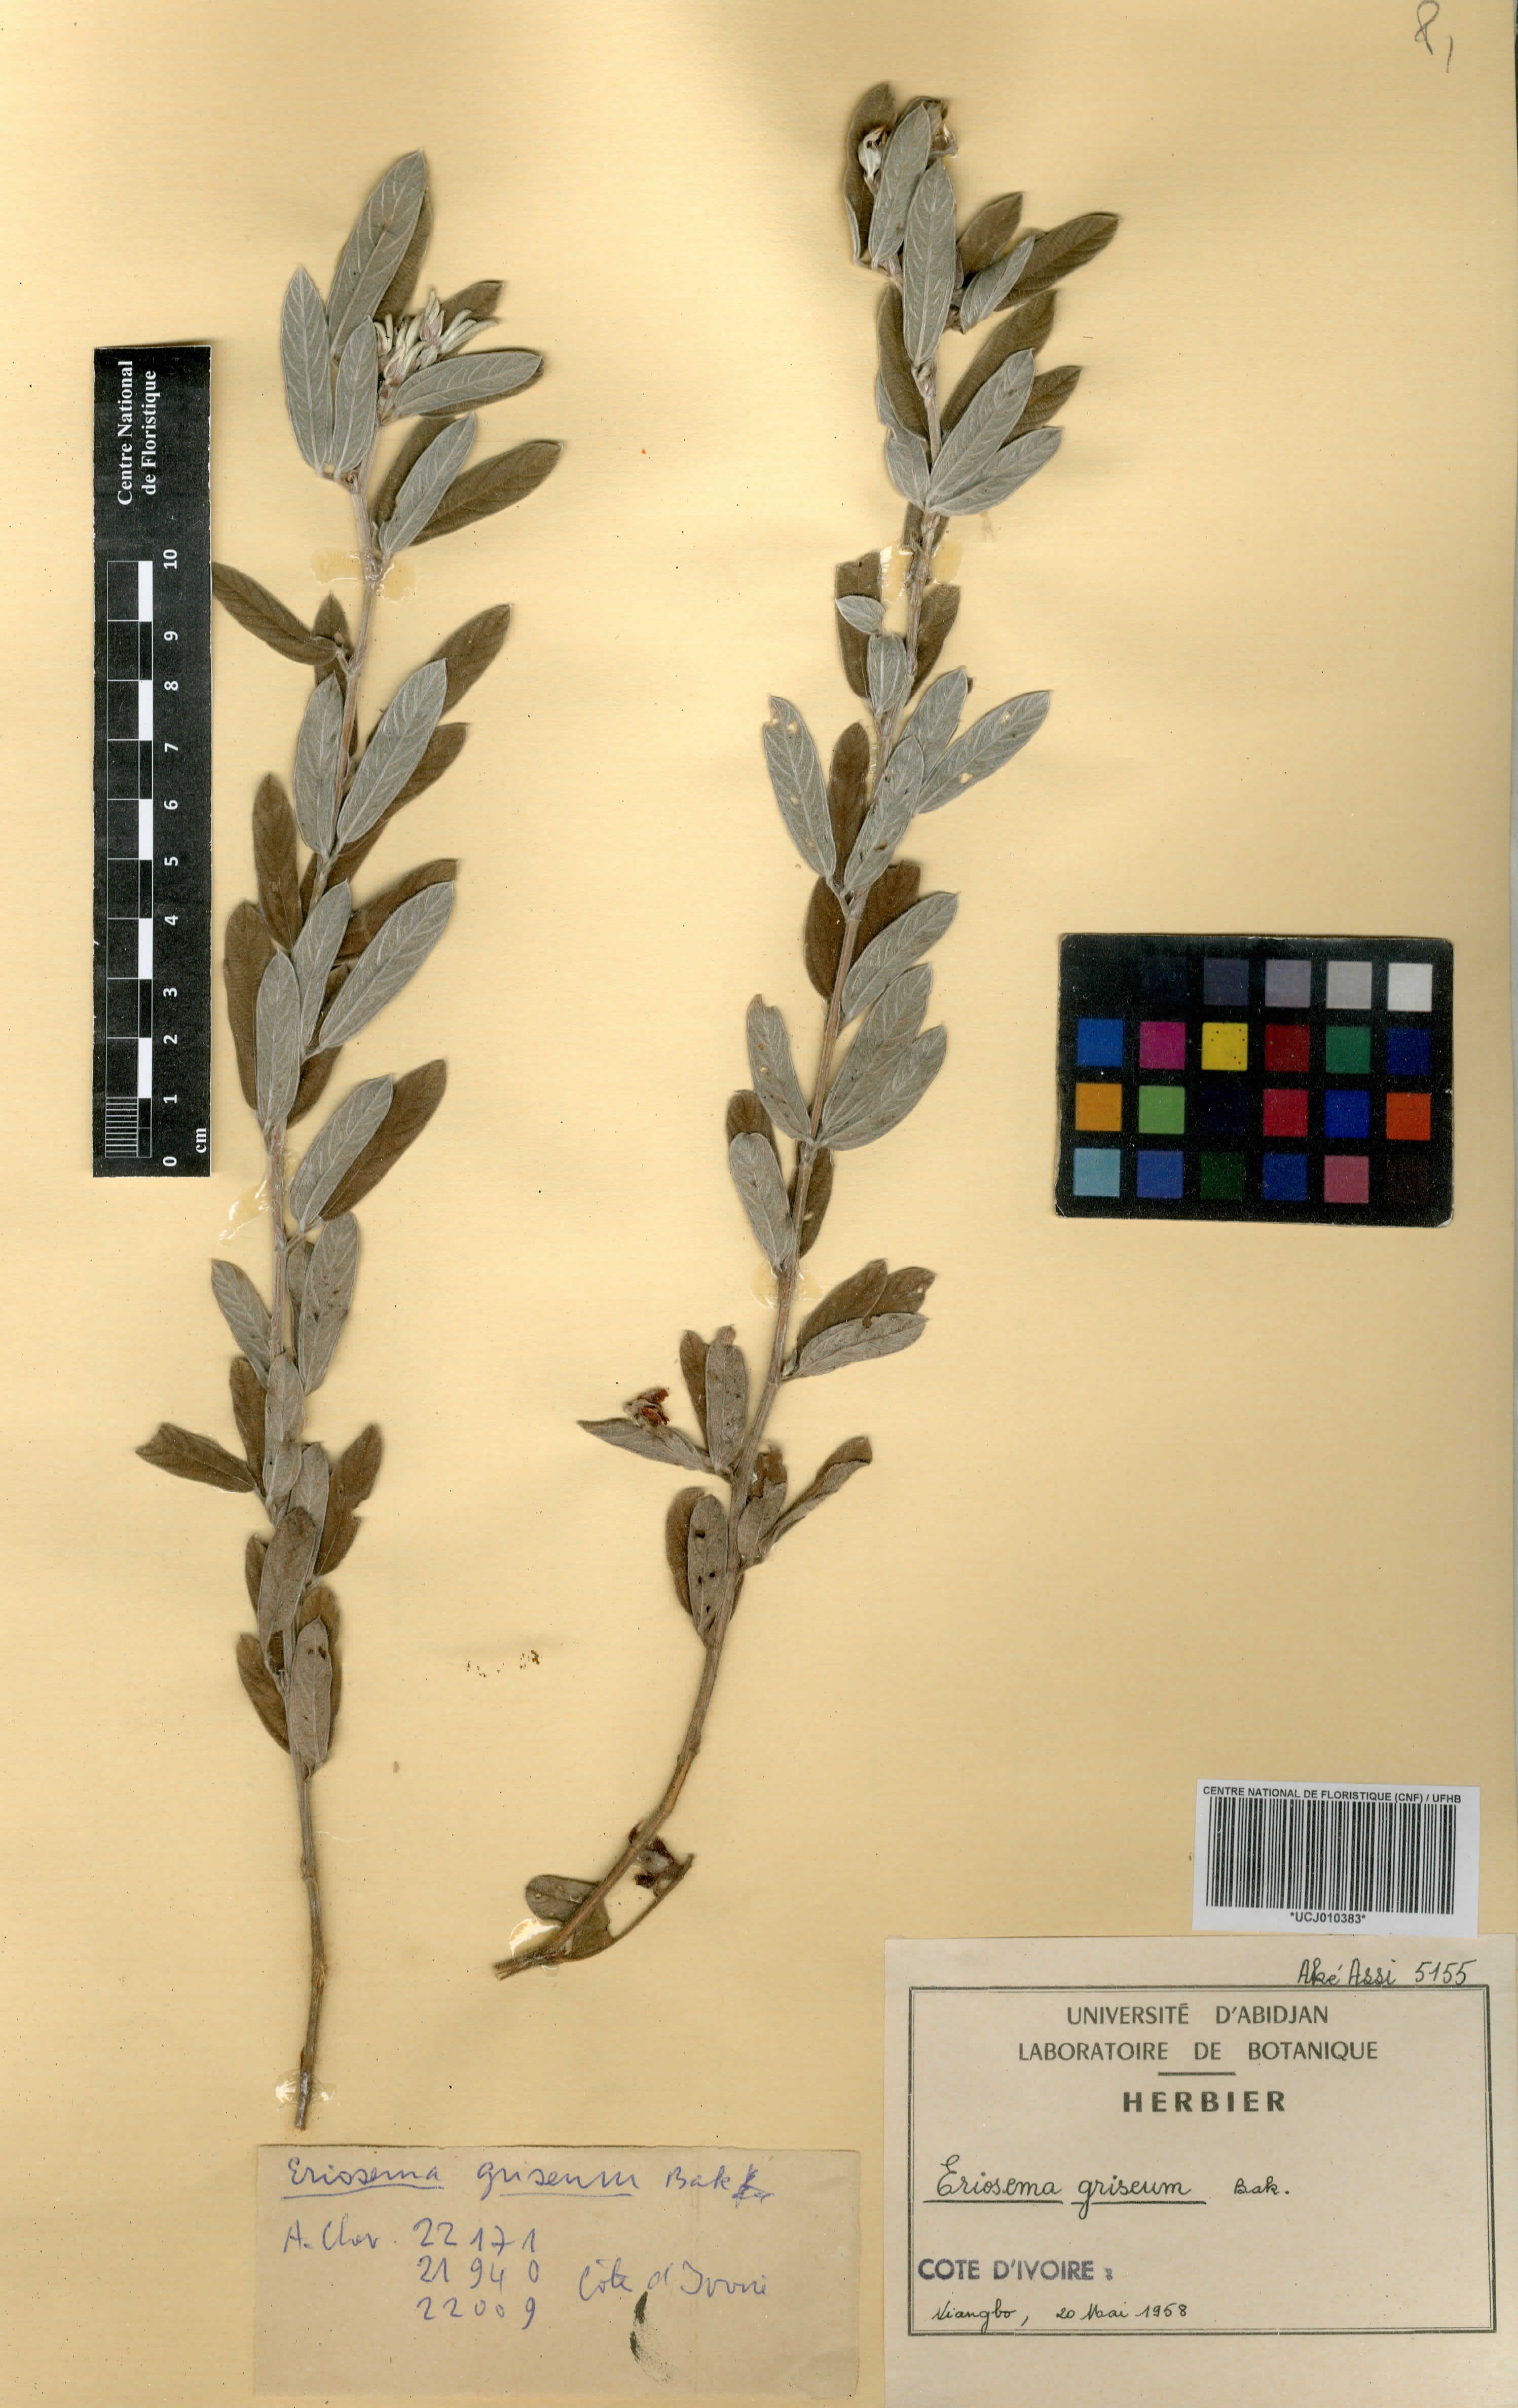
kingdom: Plantae
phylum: Tracheophyta
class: Magnoliopsida
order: Fabales
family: Fabaceae
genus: Eriosema
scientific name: Eriosema griseum
